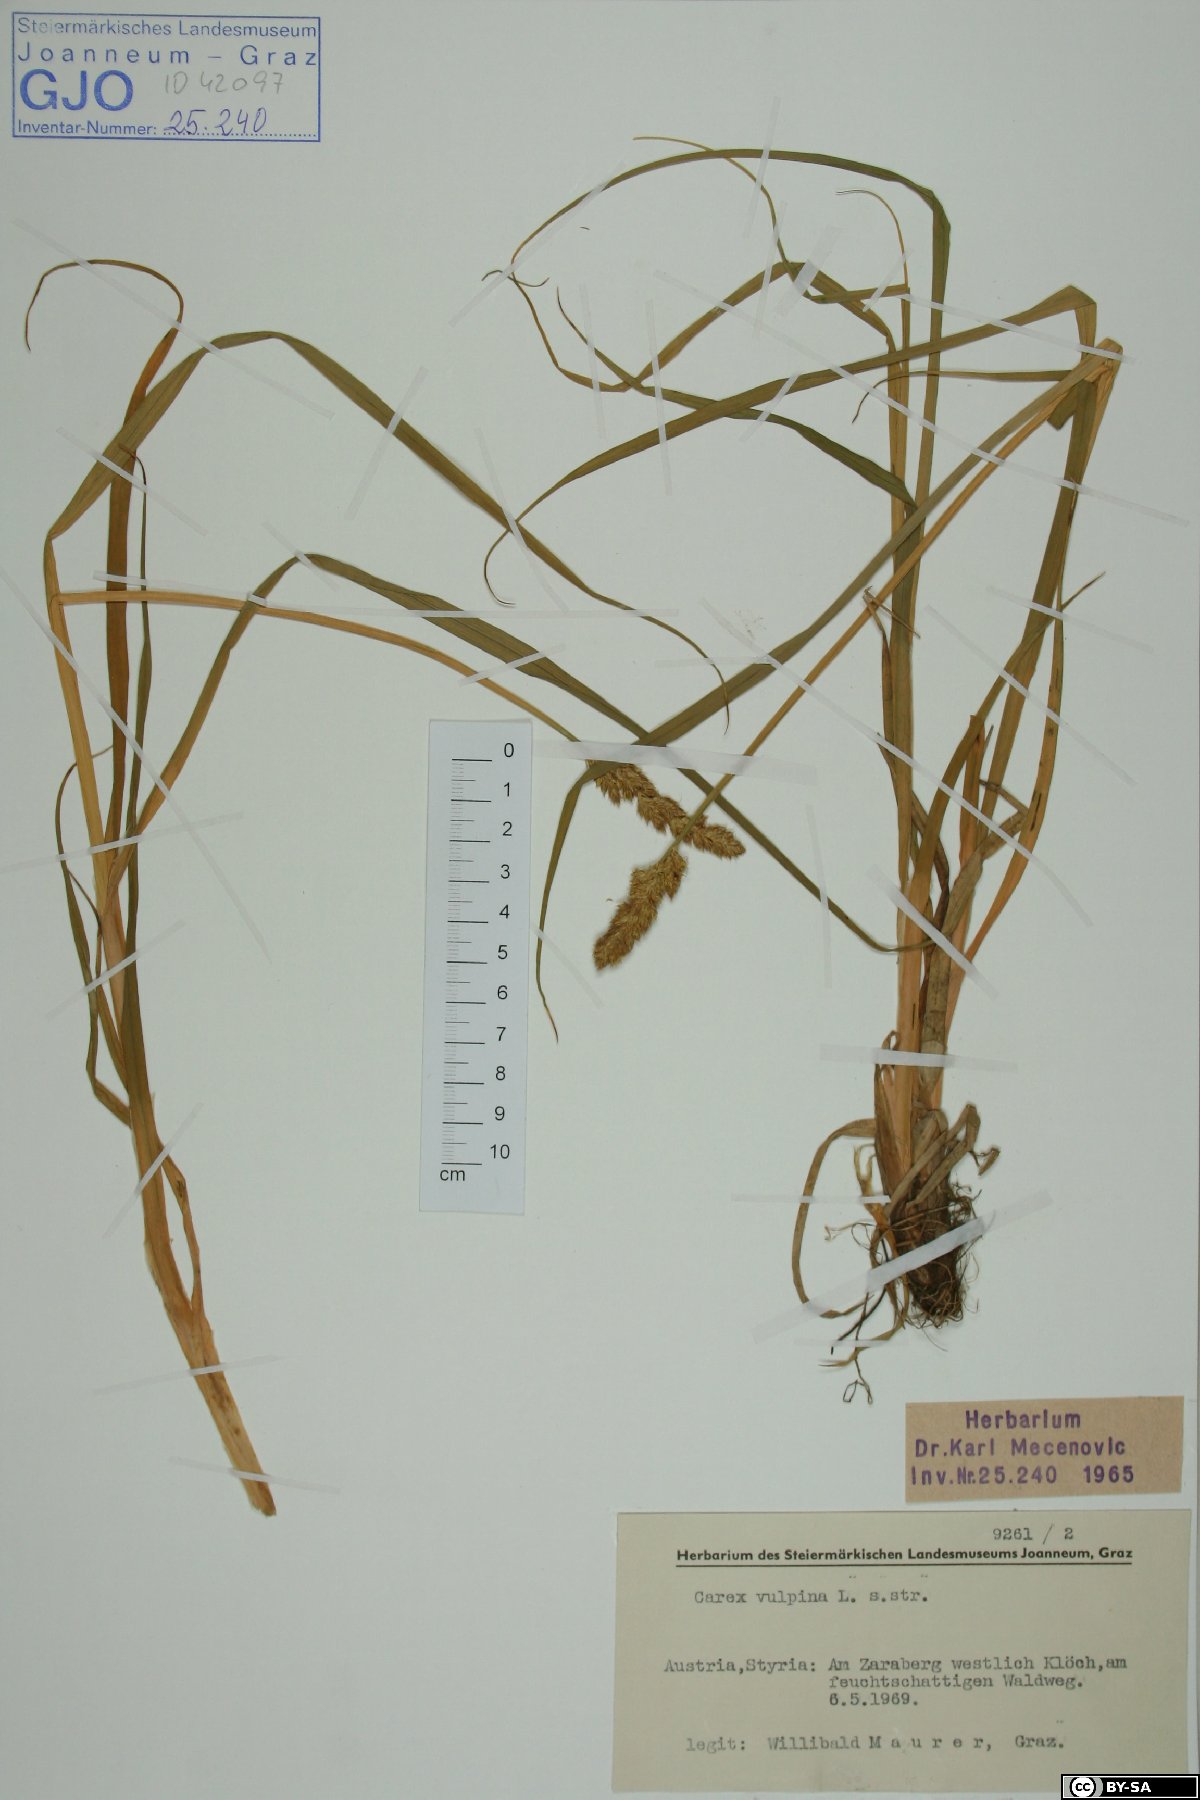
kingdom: Plantae
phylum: Tracheophyta
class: Liliopsida
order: Poales
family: Cyperaceae
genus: Carex
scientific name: Carex vulpina
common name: True fox-sedge
